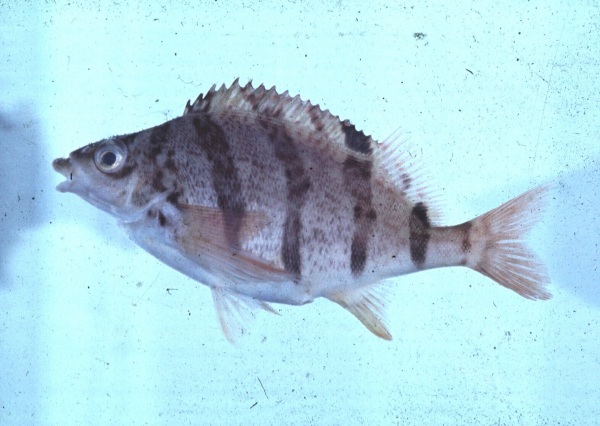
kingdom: Animalia
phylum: Chordata
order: Perciformes
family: Cheilodactylidae
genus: Cheilodactylus
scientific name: Cheilodactylus pixi
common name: Barred fingerfin
